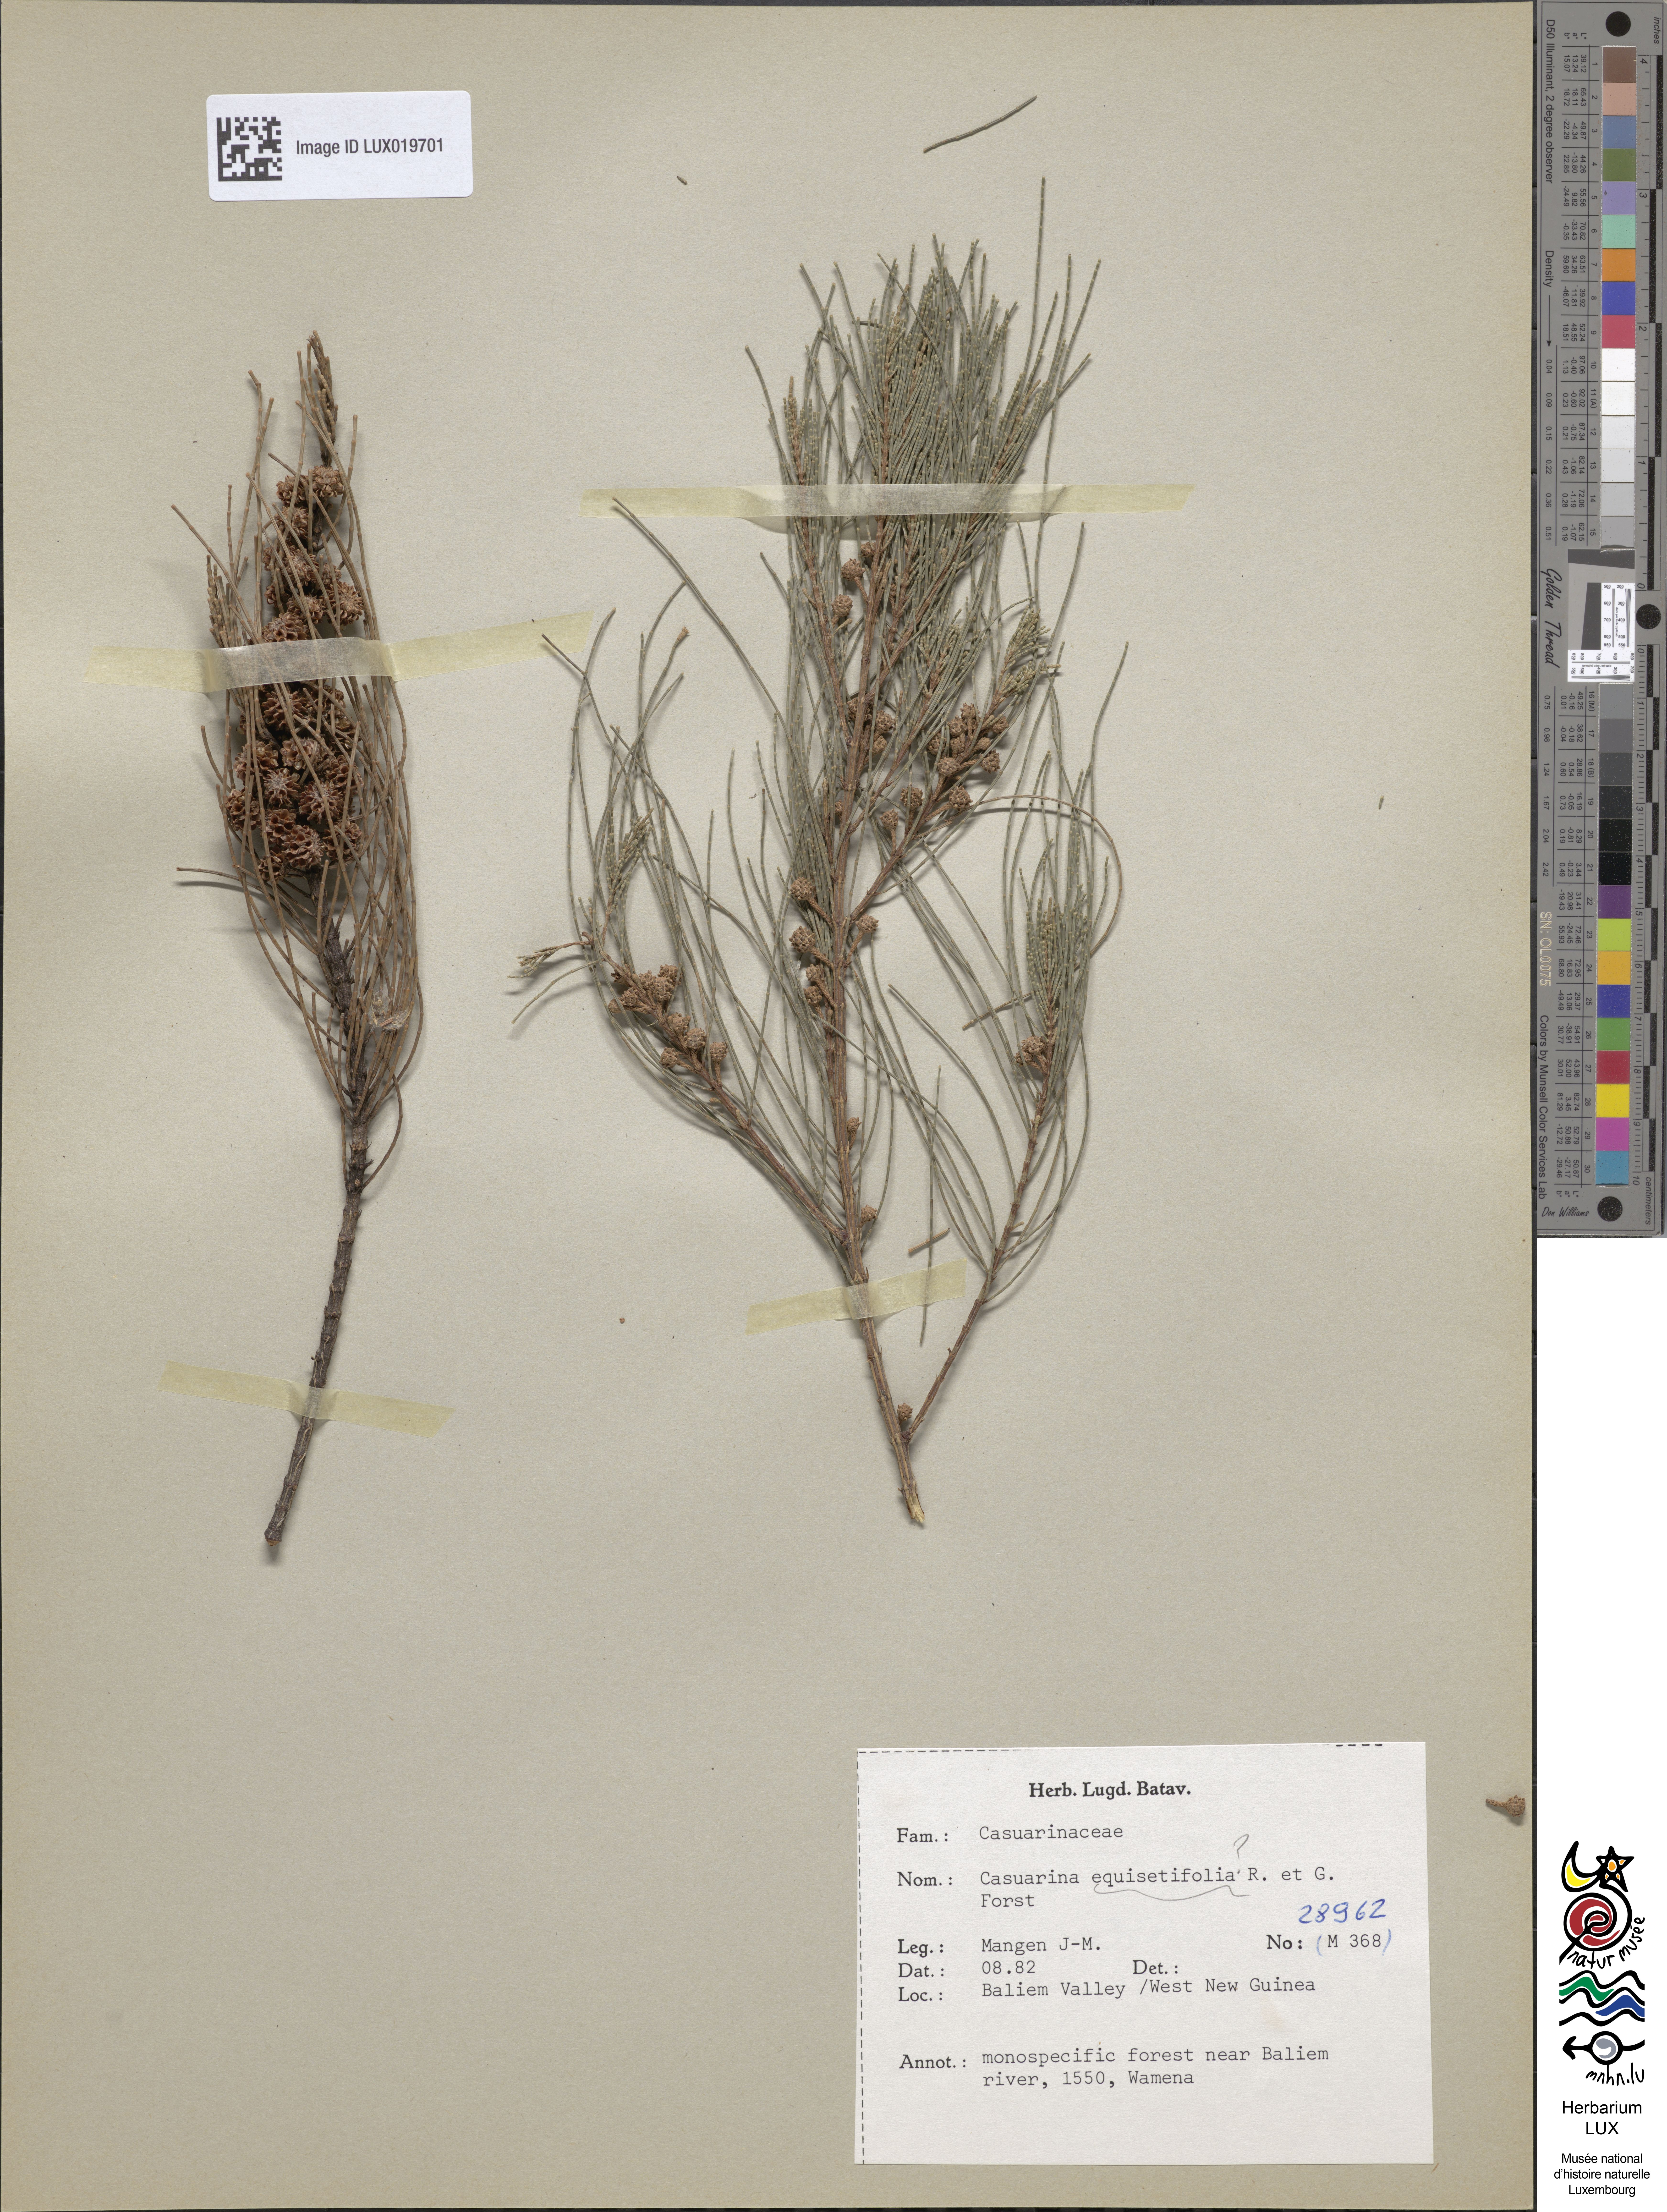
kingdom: Plantae
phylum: Tracheophyta
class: Magnoliopsida
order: Fagales
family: Casuarinaceae
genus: Casuarina
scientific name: Casuarina
